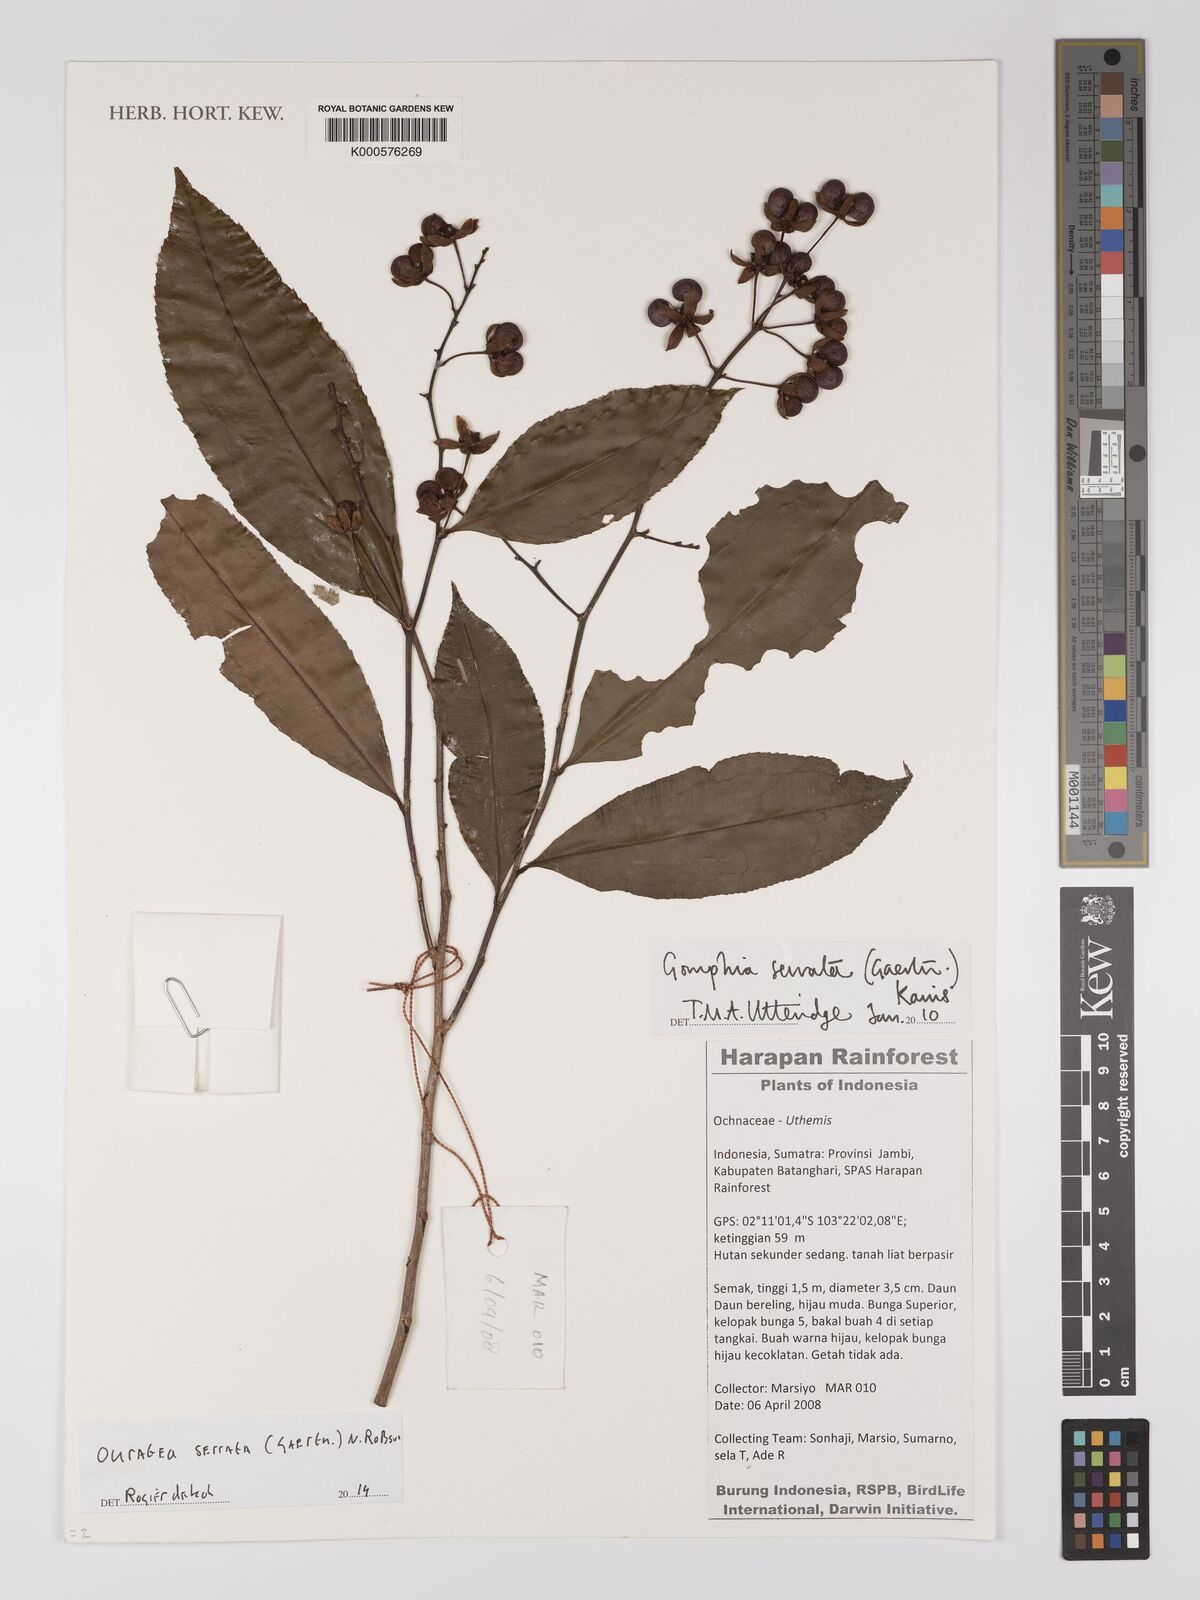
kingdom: Plantae
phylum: Tracheophyta
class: Magnoliopsida
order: Malpighiales
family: Ochnaceae
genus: Gomphia
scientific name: Gomphia serrata
